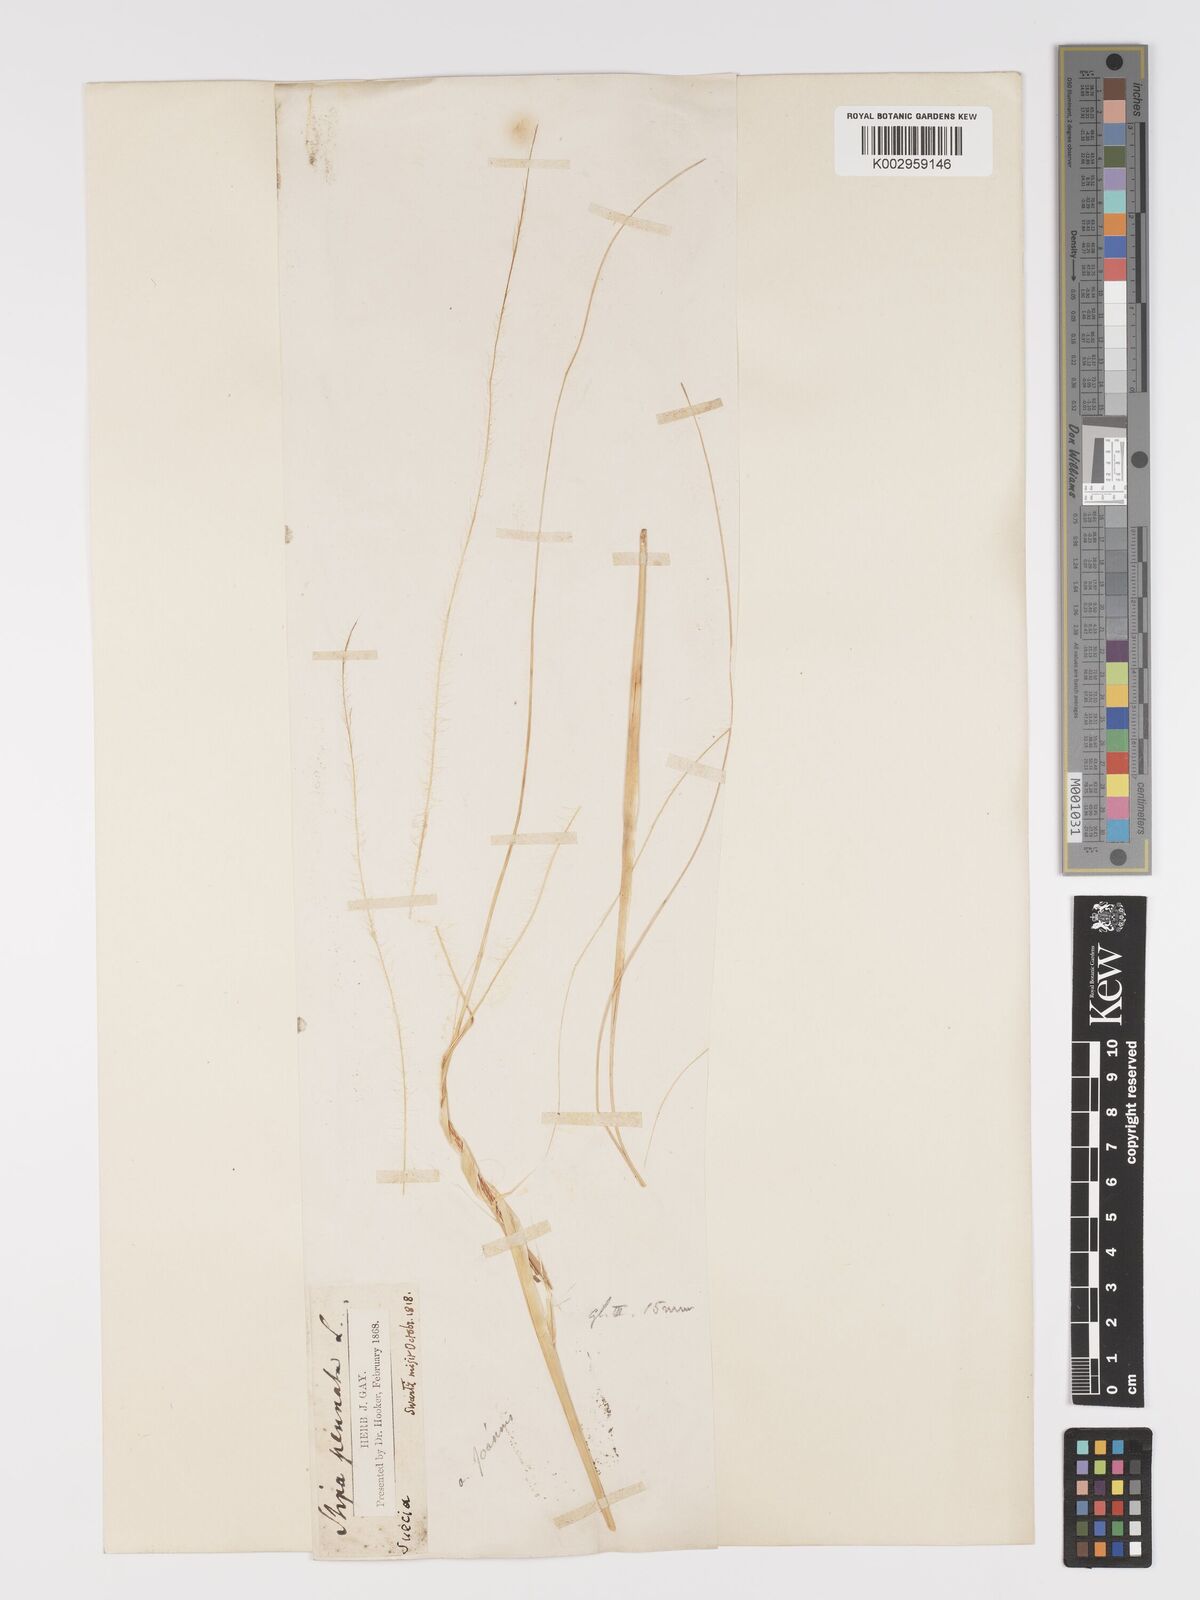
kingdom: Plantae
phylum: Tracheophyta
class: Liliopsida
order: Poales
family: Poaceae
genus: Stipa
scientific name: Stipa pennata
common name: European feather grass
